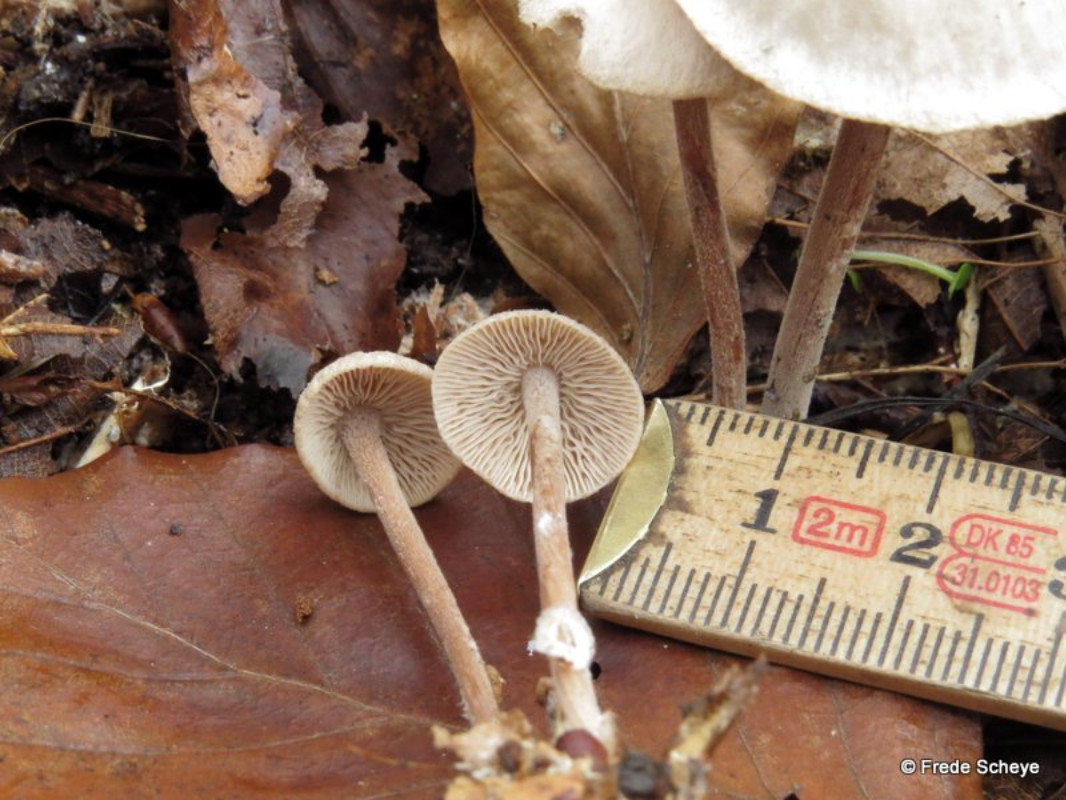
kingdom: Fungi
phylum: Basidiomycota
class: Agaricomycetes
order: Agaricales
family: Omphalotaceae
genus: Collybiopsis
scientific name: Collybiopsis confluens
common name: knippe-fladhat
